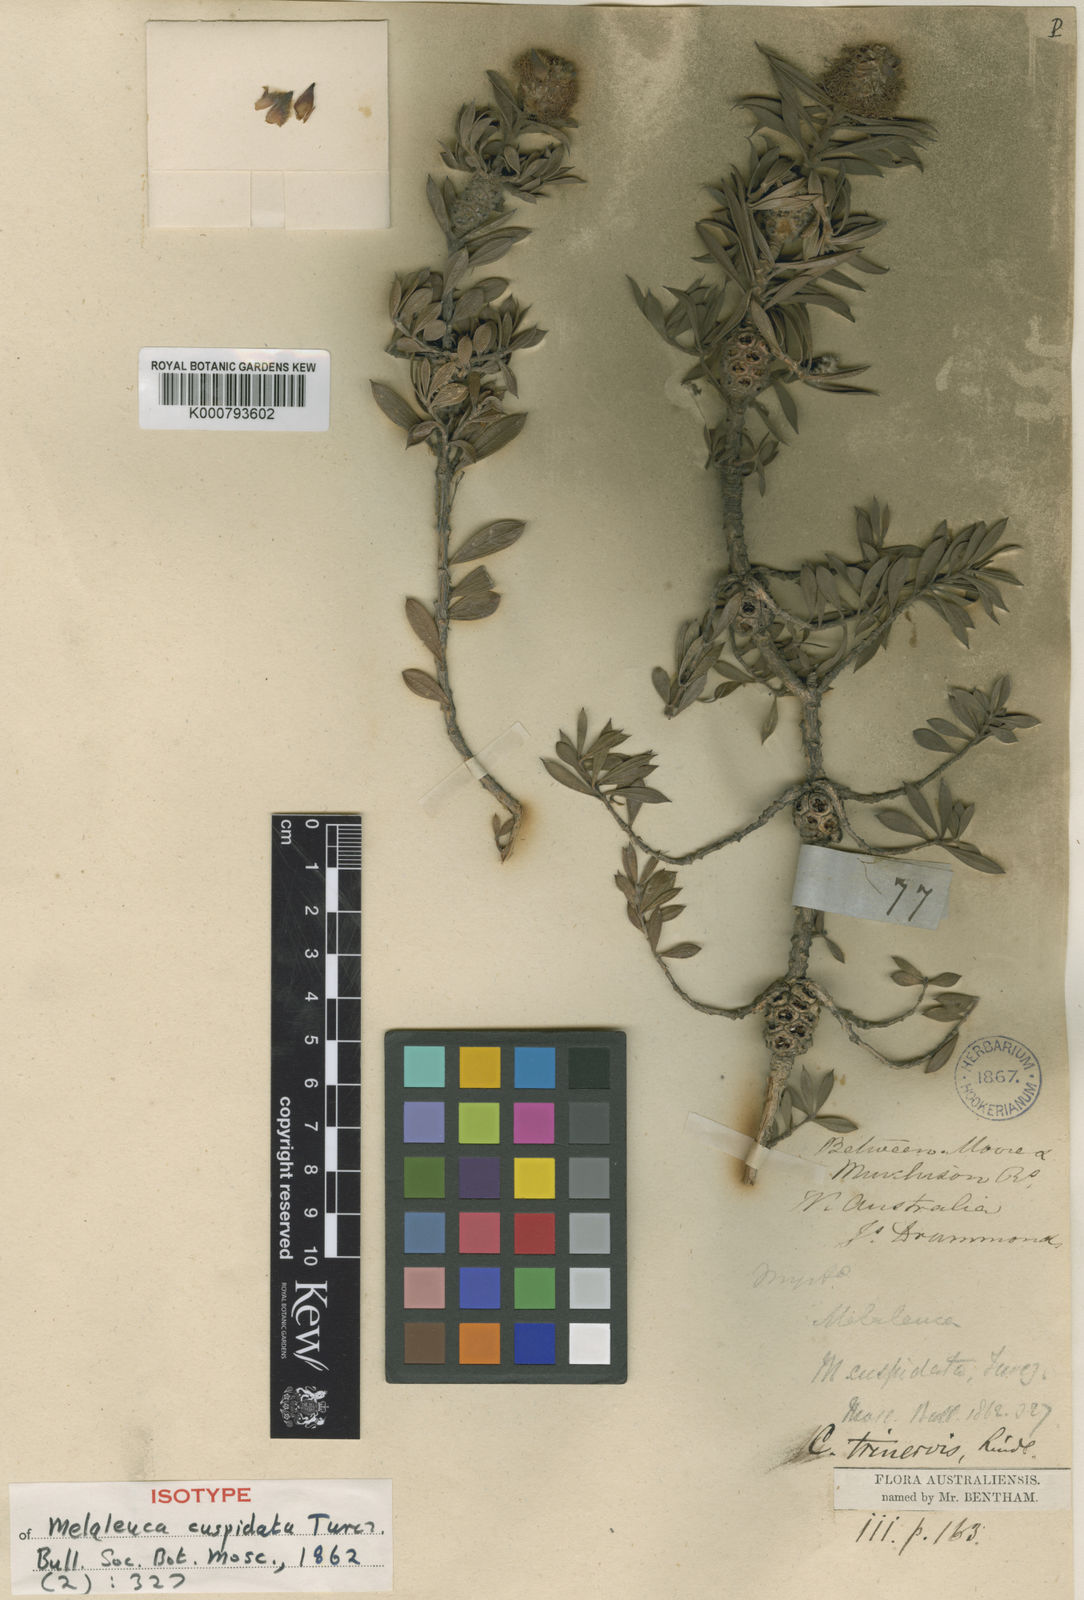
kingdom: Plantae
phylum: Tracheophyta
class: Magnoliopsida
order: Myrtales
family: Myrtaceae
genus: Melaleuca
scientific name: Melaleuca cowleyae
